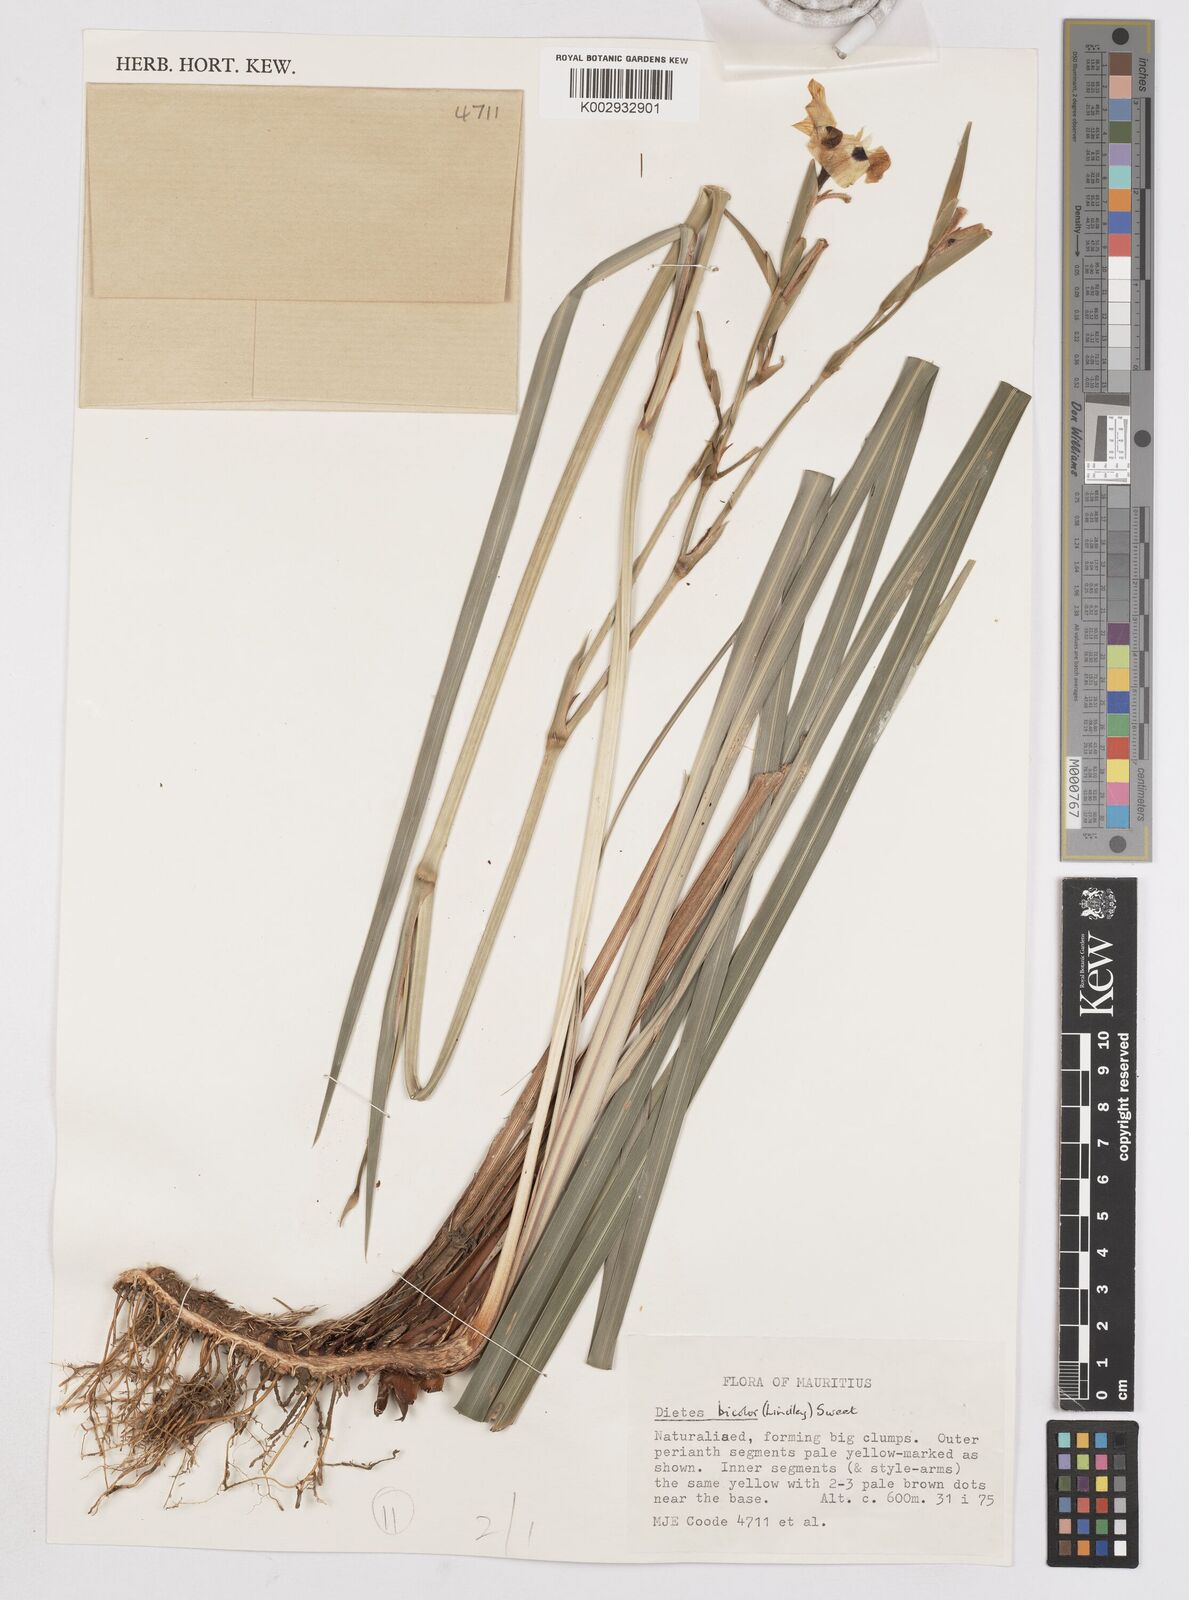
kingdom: Plantae
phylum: Tracheophyta
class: Liliopsida
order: Asparagales
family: Iridaceae
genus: Dietes
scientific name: Dietes
